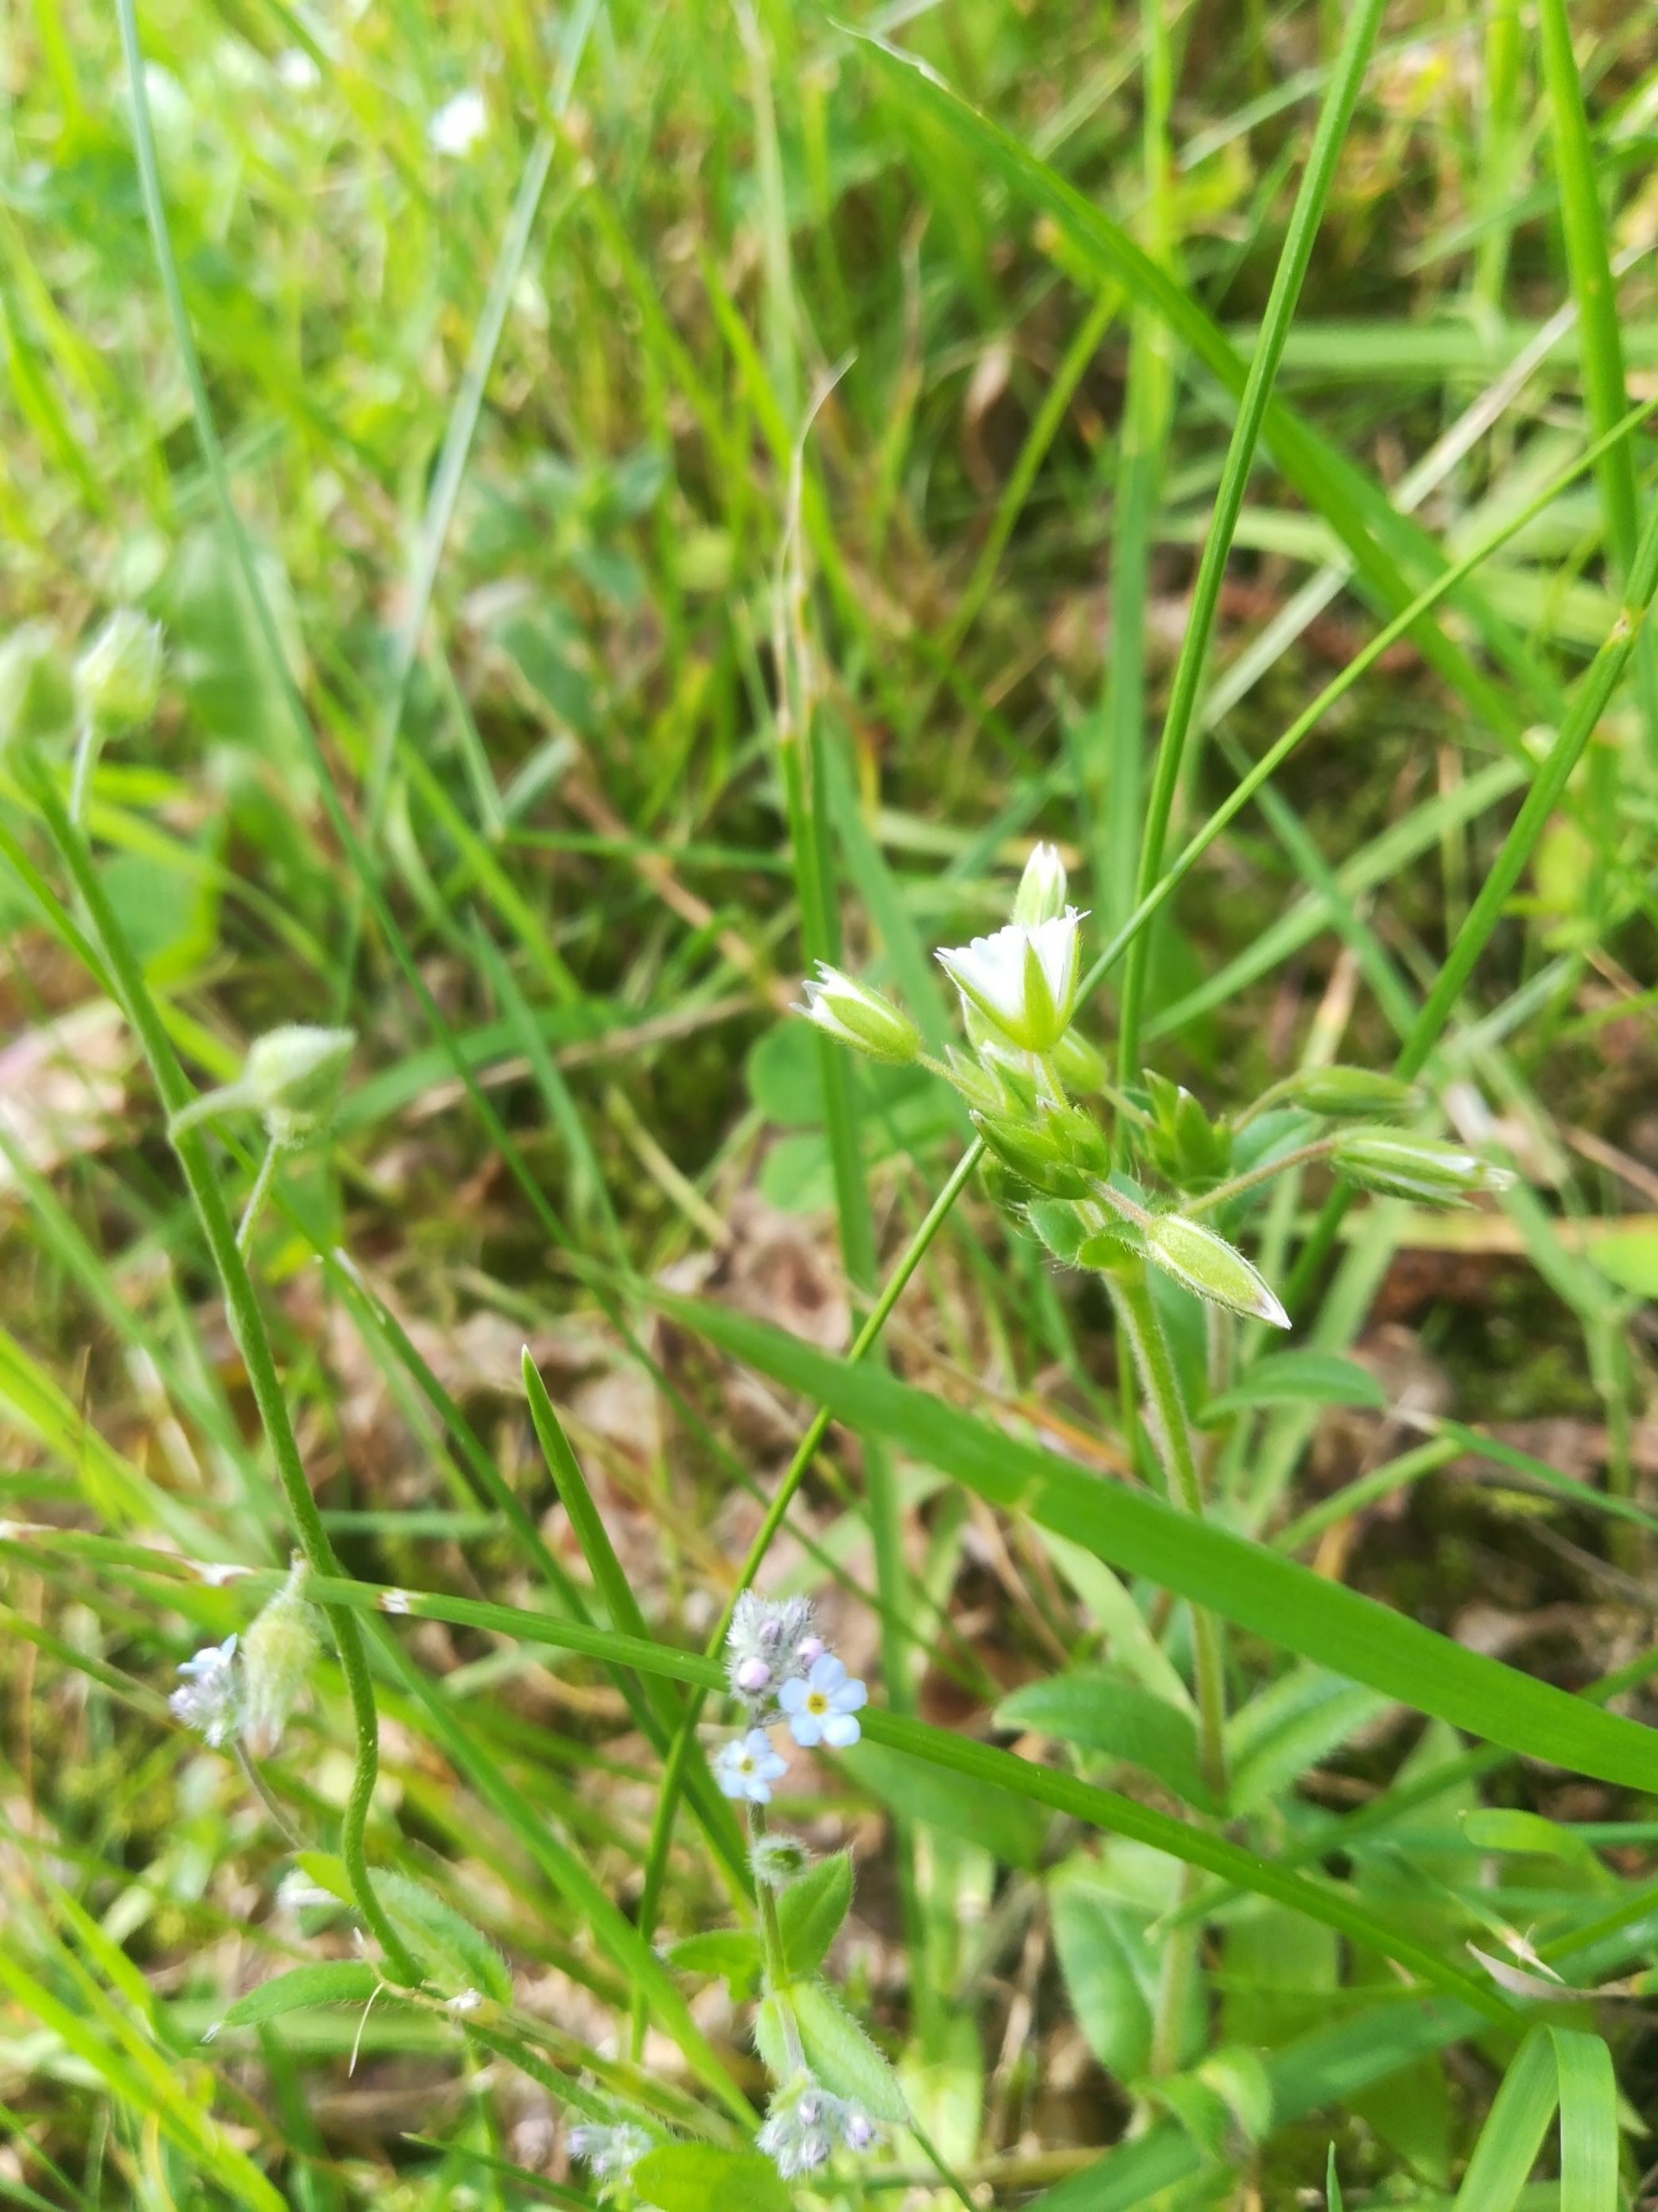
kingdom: Plantae
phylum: Tracheophyta
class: Magnoliopsida
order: Boraginales
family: Boraginaceae
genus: Myosotis
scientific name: Myosotis arvensis
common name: Mark-forglemmigej
